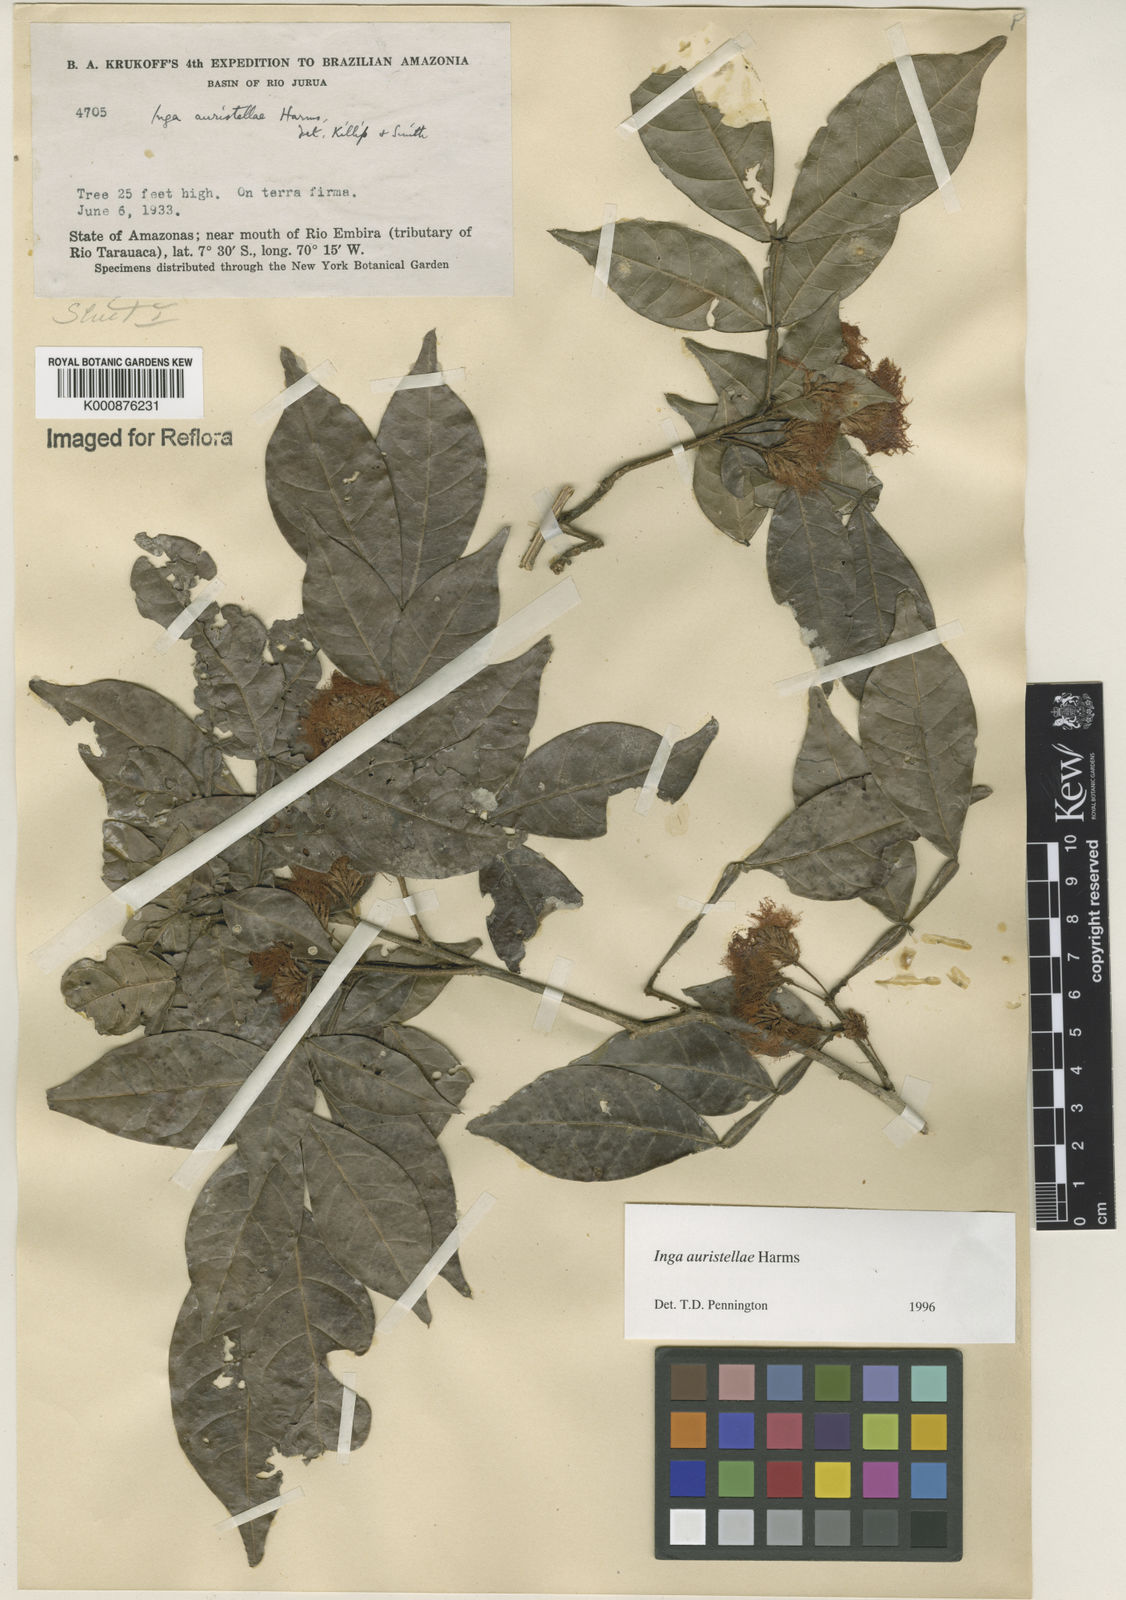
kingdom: Plantae
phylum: Tracheophyta
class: Magnoliopsida
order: Fabales
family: Fabaceae
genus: Inga
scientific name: Inga auristellae
